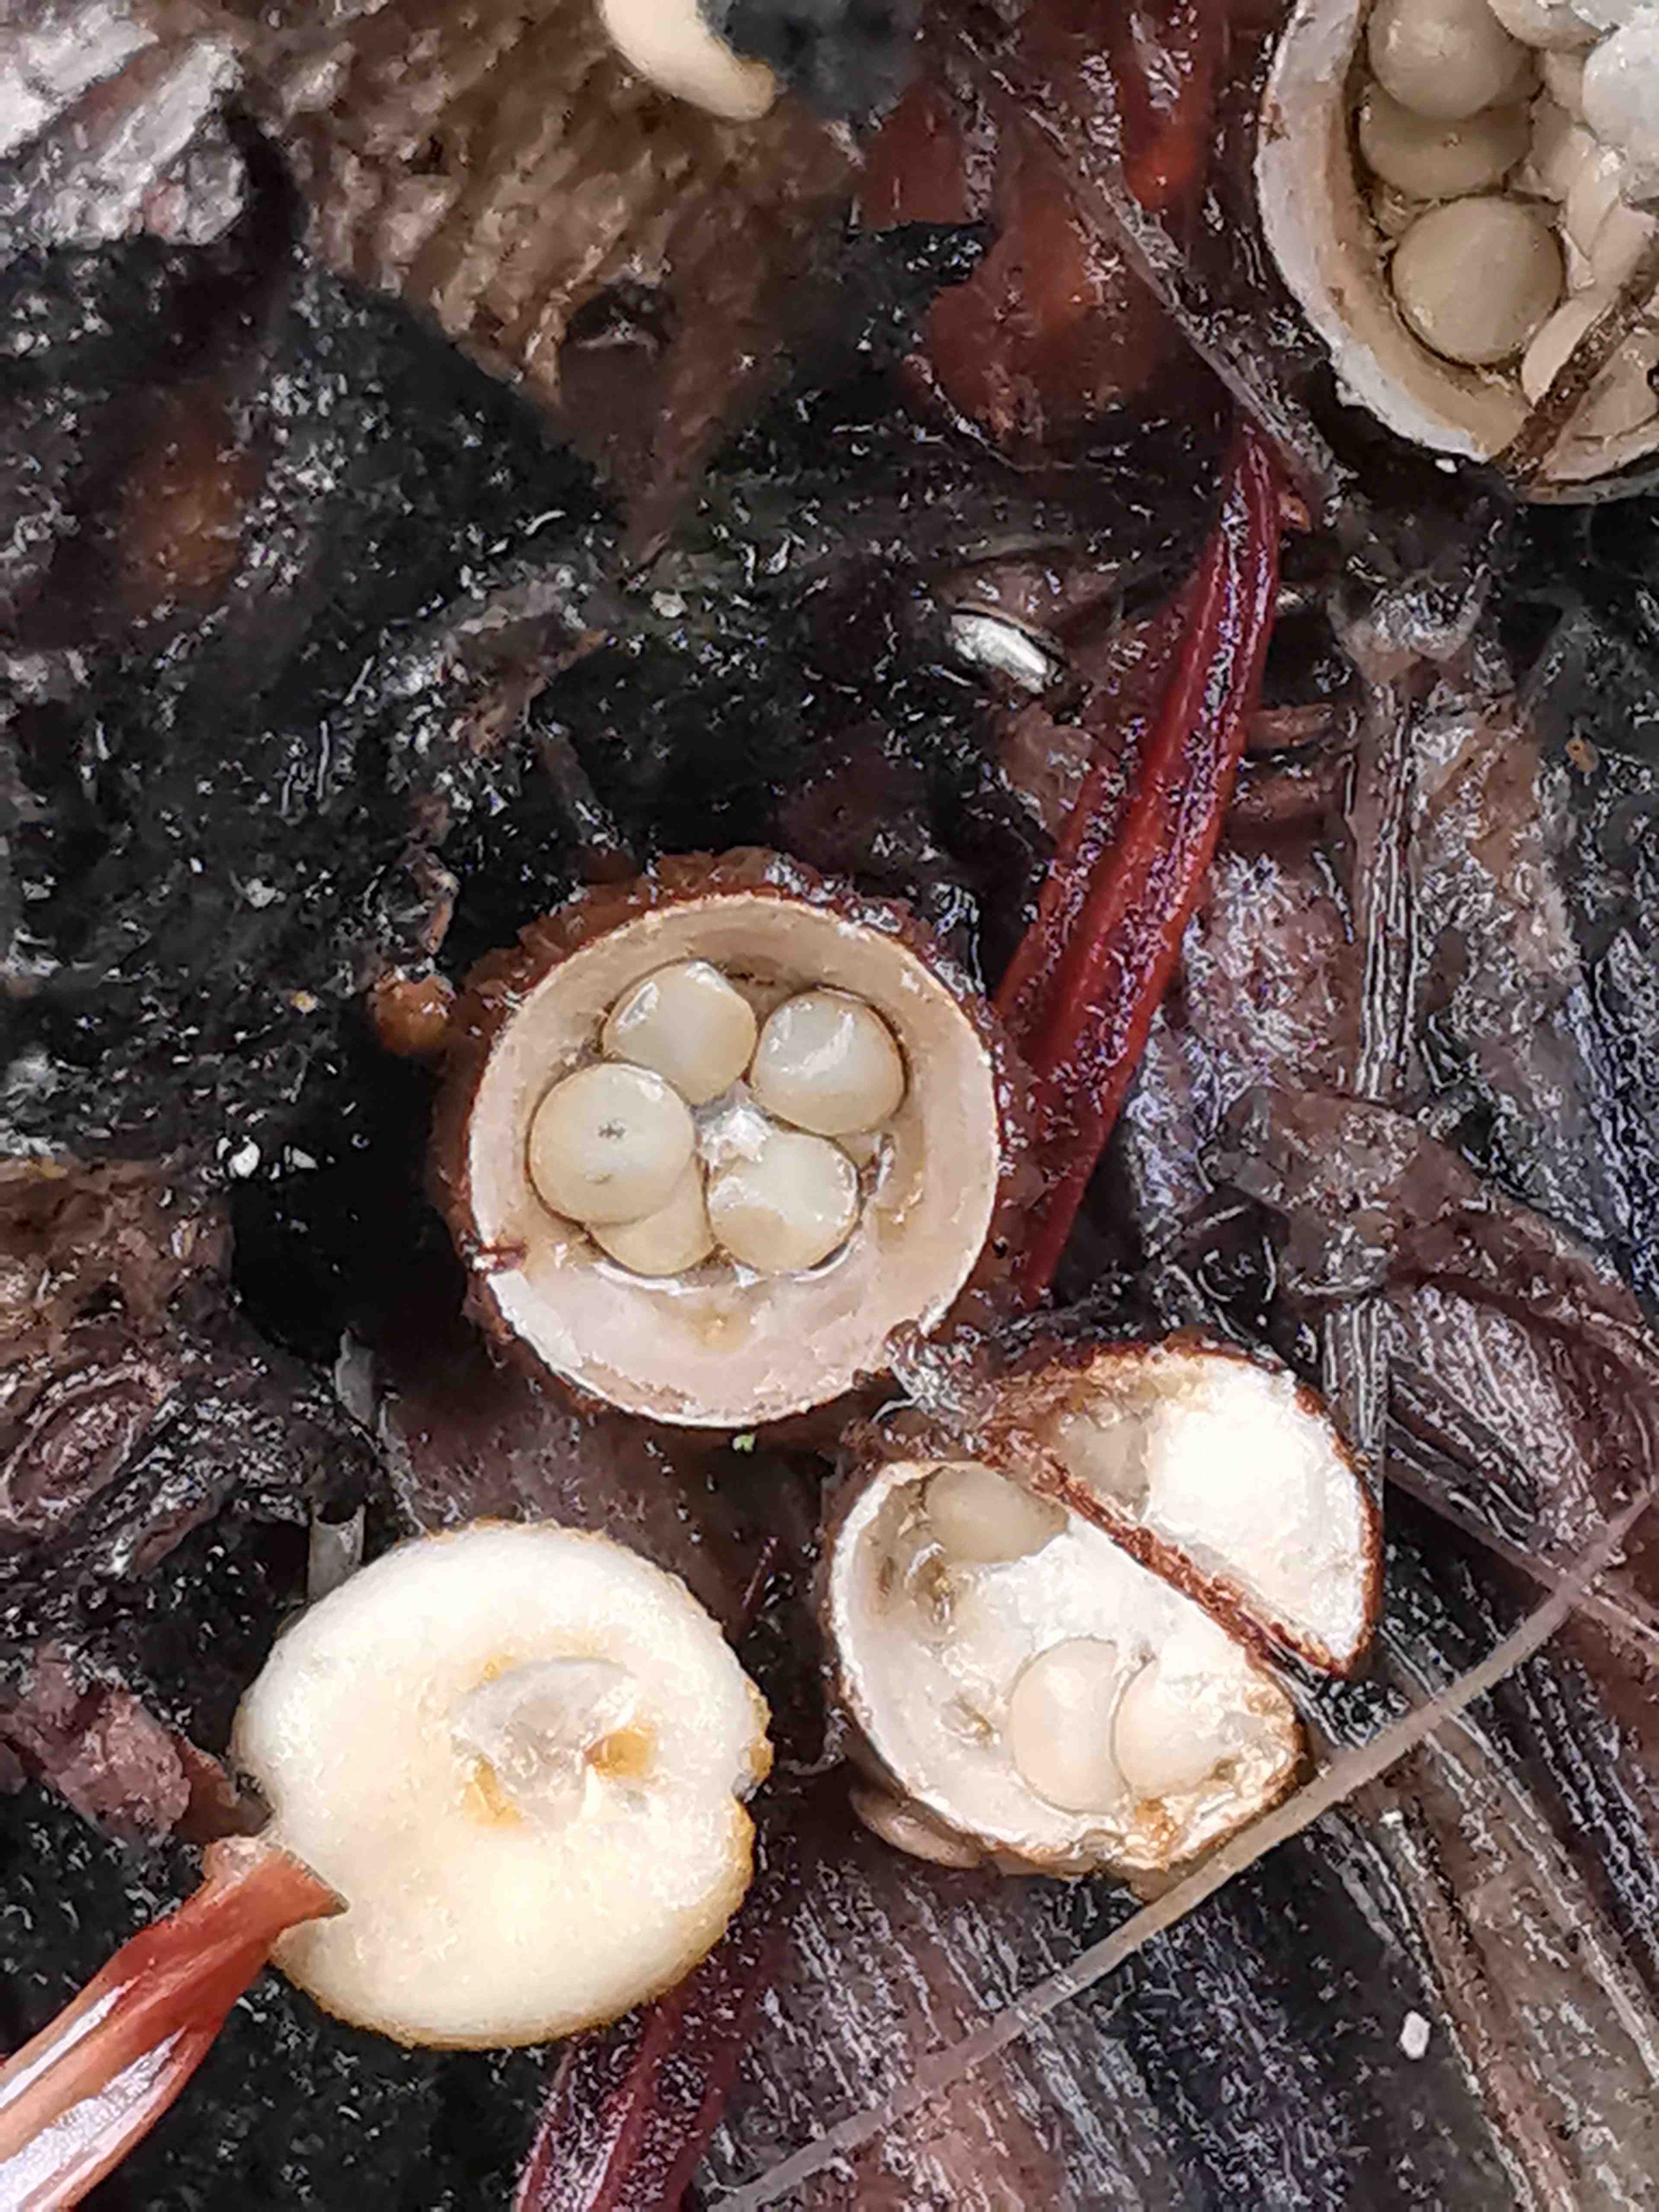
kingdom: Fungi
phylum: Basidiomycota
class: Agaricomycetes
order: Agaricales
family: Nidulariaceae
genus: Crucibulum
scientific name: Crucibulum
